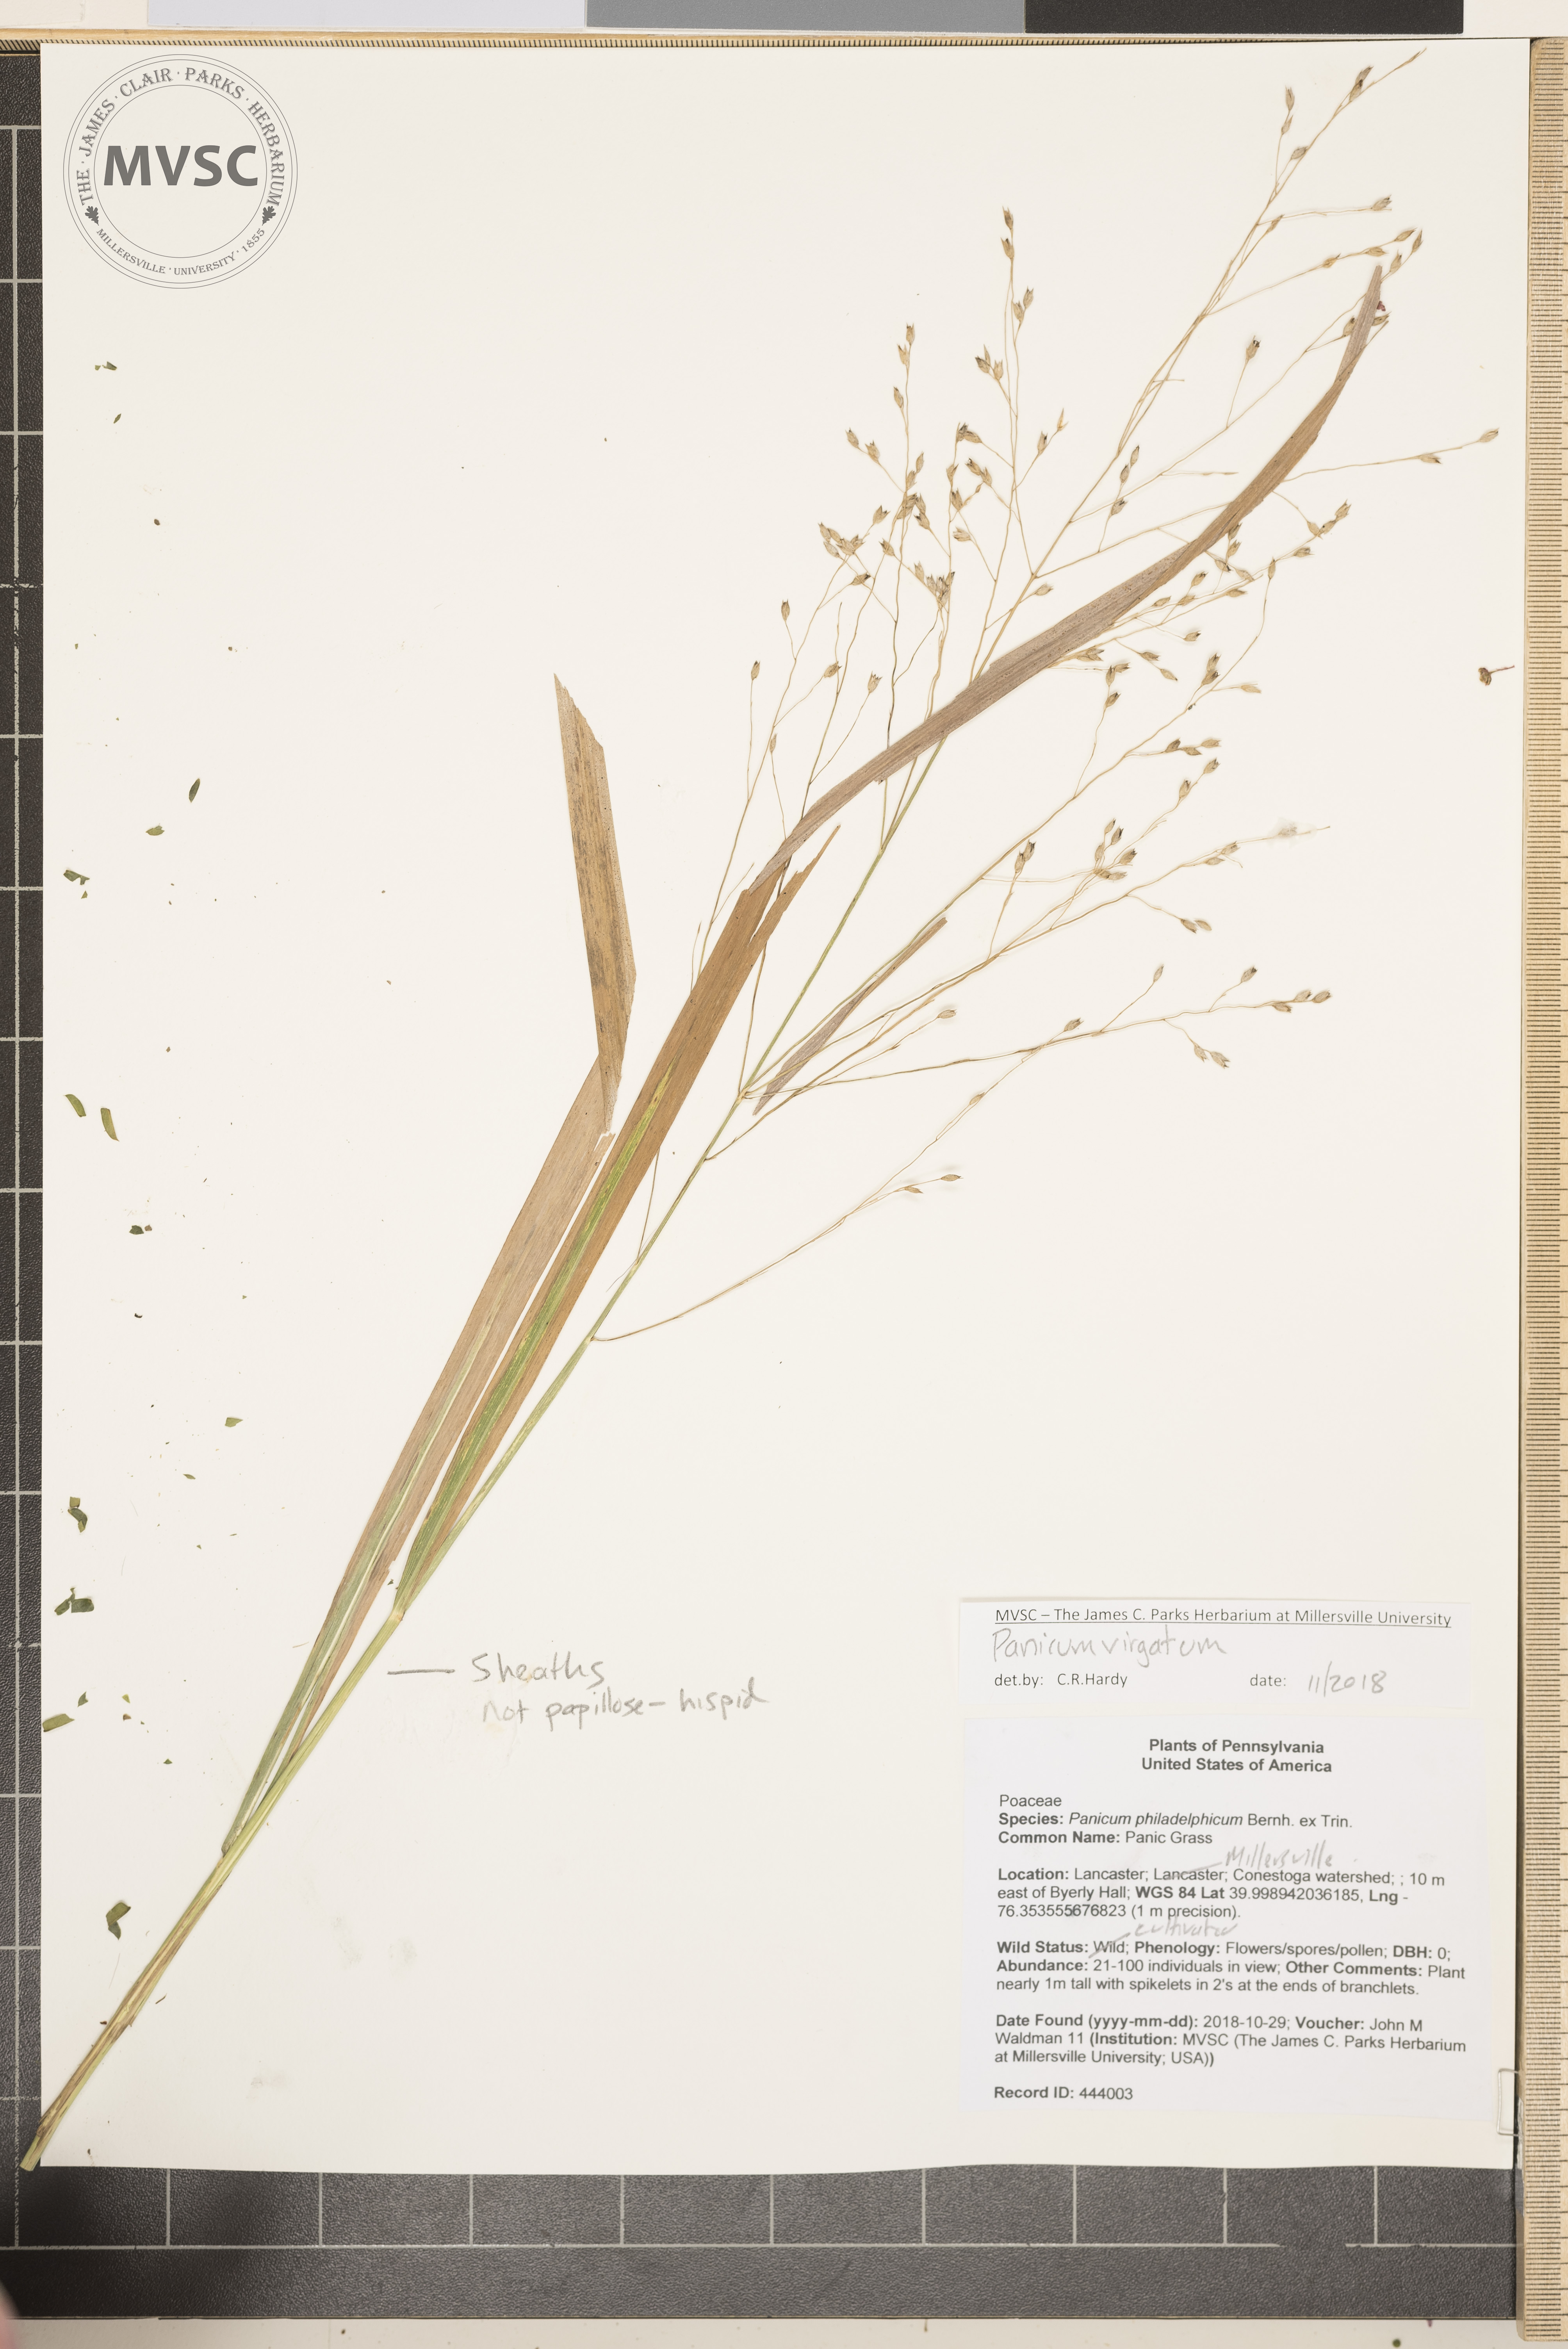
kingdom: Plantae
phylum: Tracheophyta
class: Liliopsida
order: Poales
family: Poaceae
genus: Panicum
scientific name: Panicum virgatum
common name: Switchgrass
